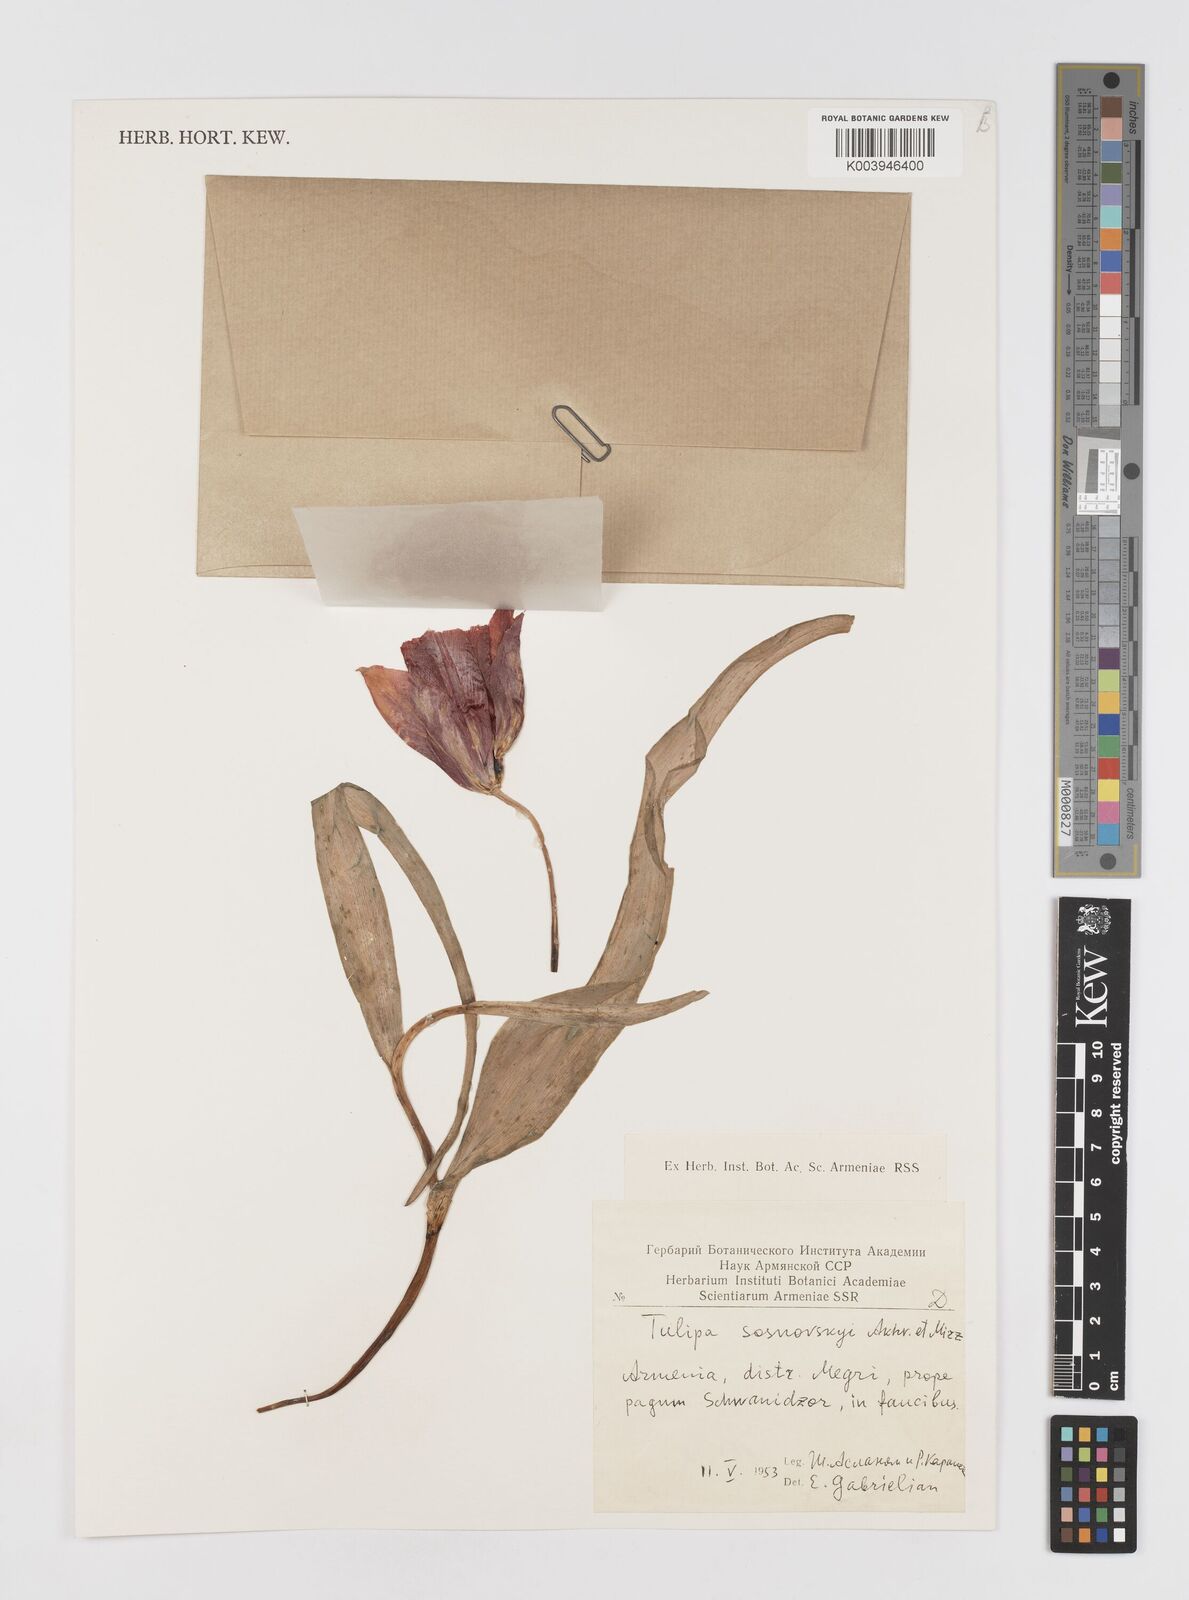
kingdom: Plantae
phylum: Tracheophyta
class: Liliopsida
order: Liliales
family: Liliaceae
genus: Tulipa
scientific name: Tulipa sosnowskyi
